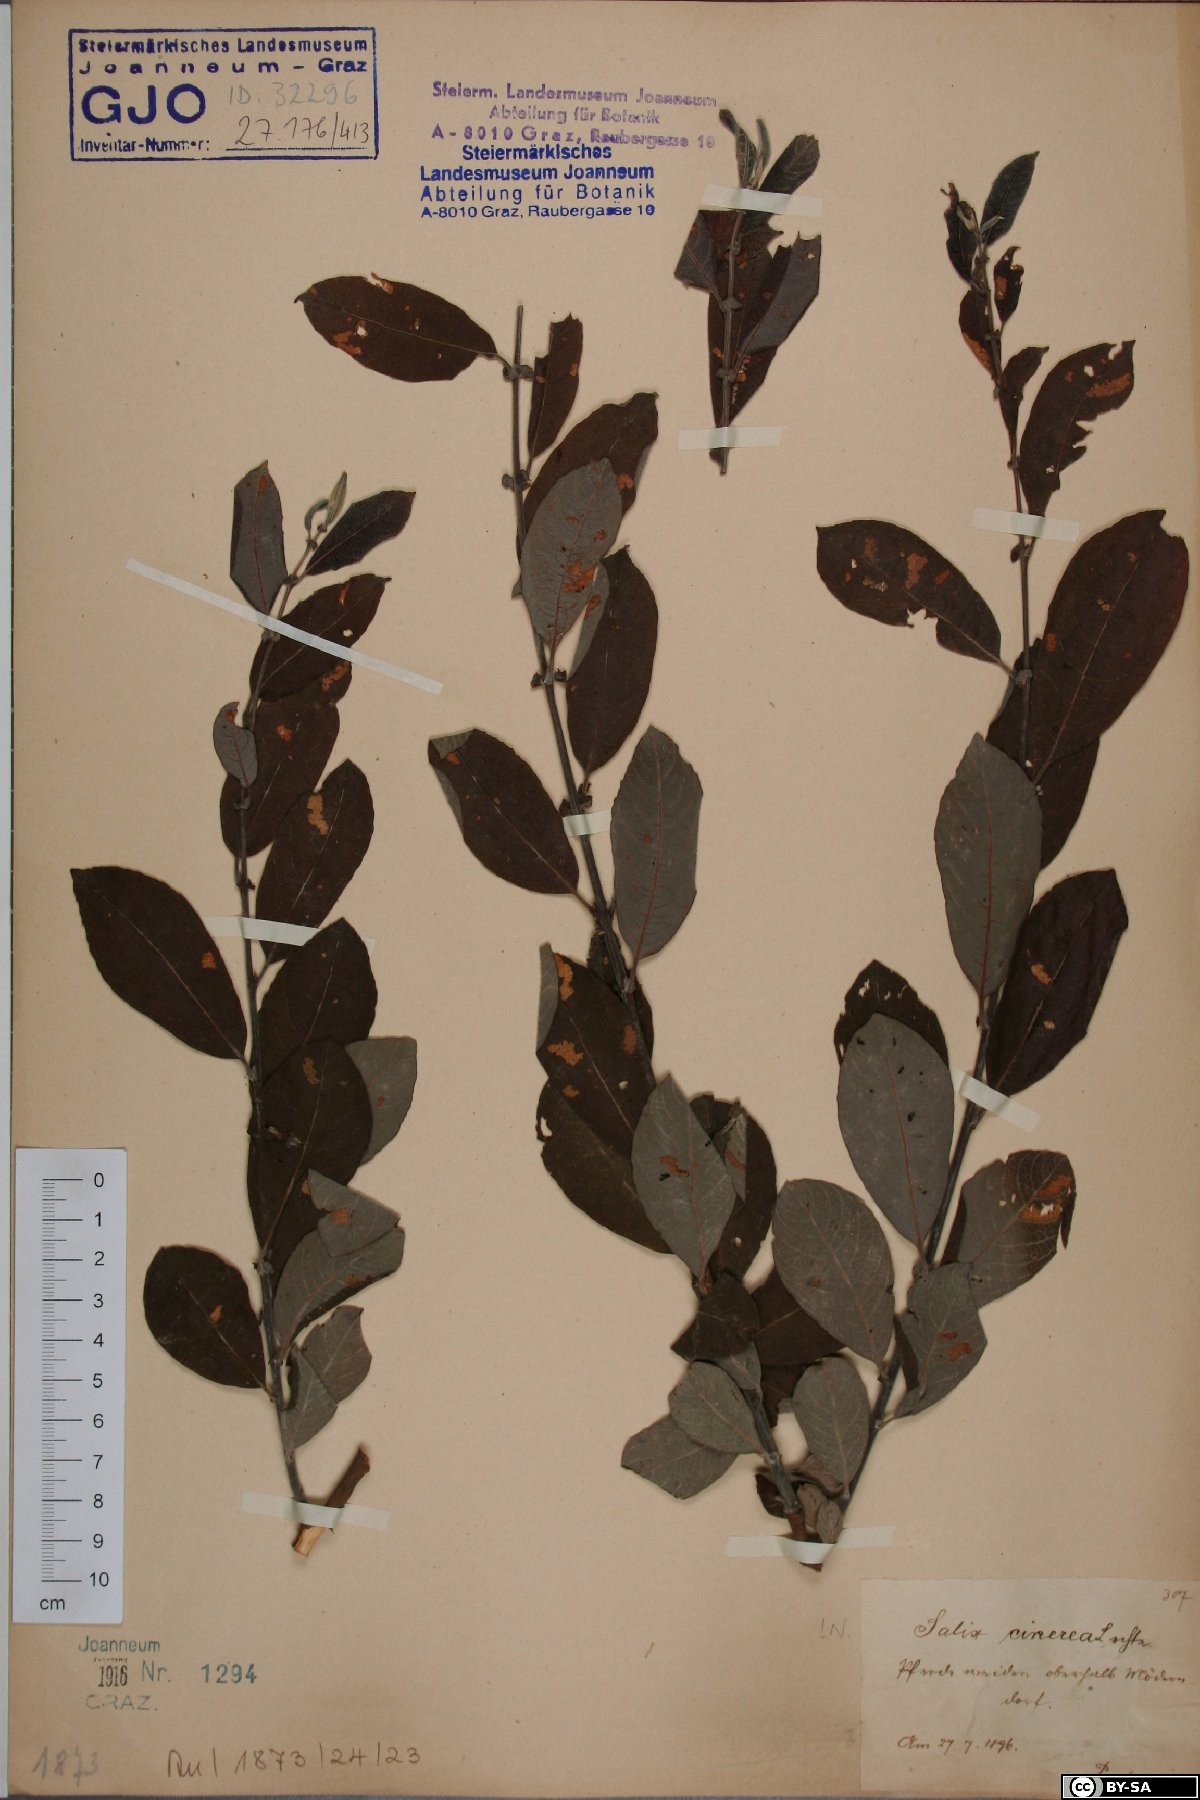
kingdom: Plantae
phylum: Tracheophyta
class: Magnoliopsida
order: Malpighiales
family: Salicaceae
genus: Salix
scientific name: Salix cinerea
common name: Common sallow
